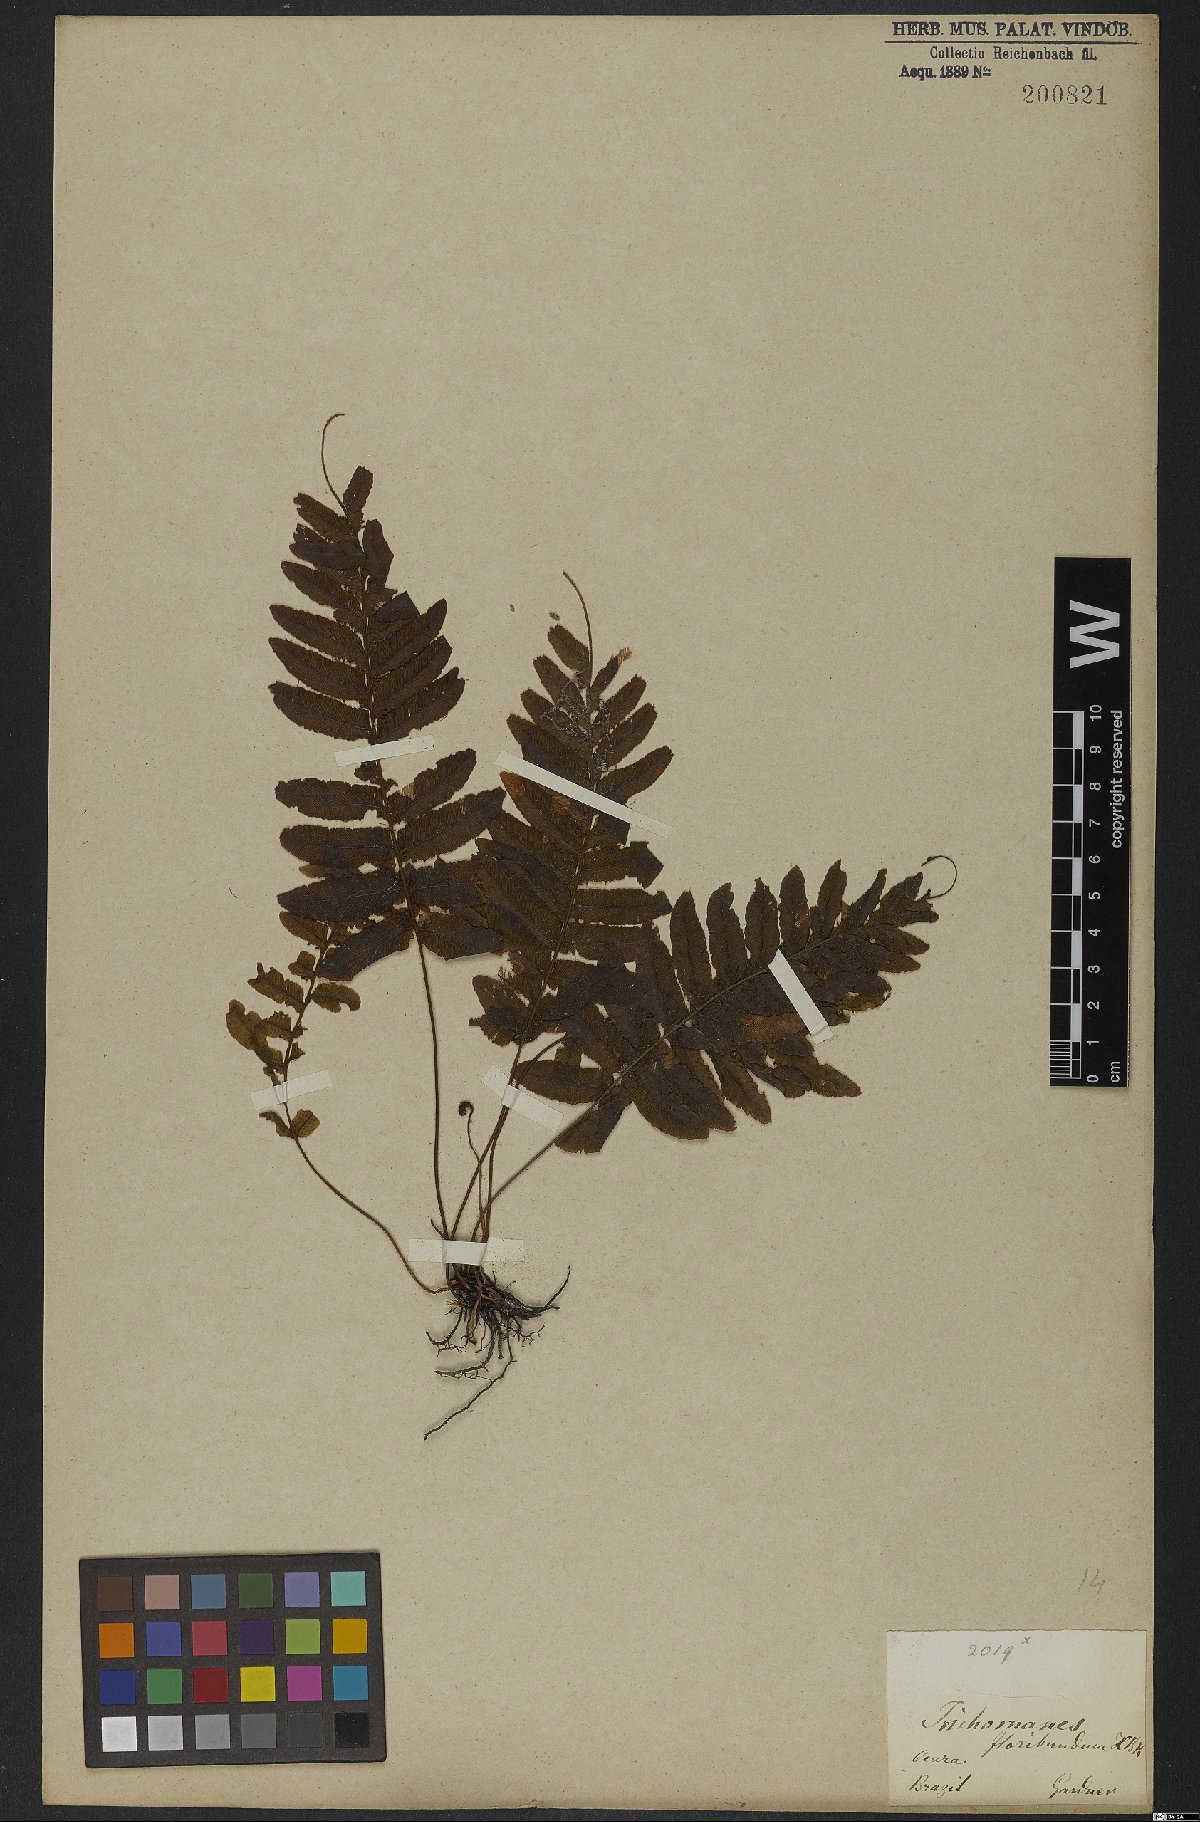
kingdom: Plantae
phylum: Tracheophyta
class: Polypodiopsida
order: Hymenophyllales
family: Hymenophyllaceae
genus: Trichomanes
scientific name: Trichomanes pinnatum
